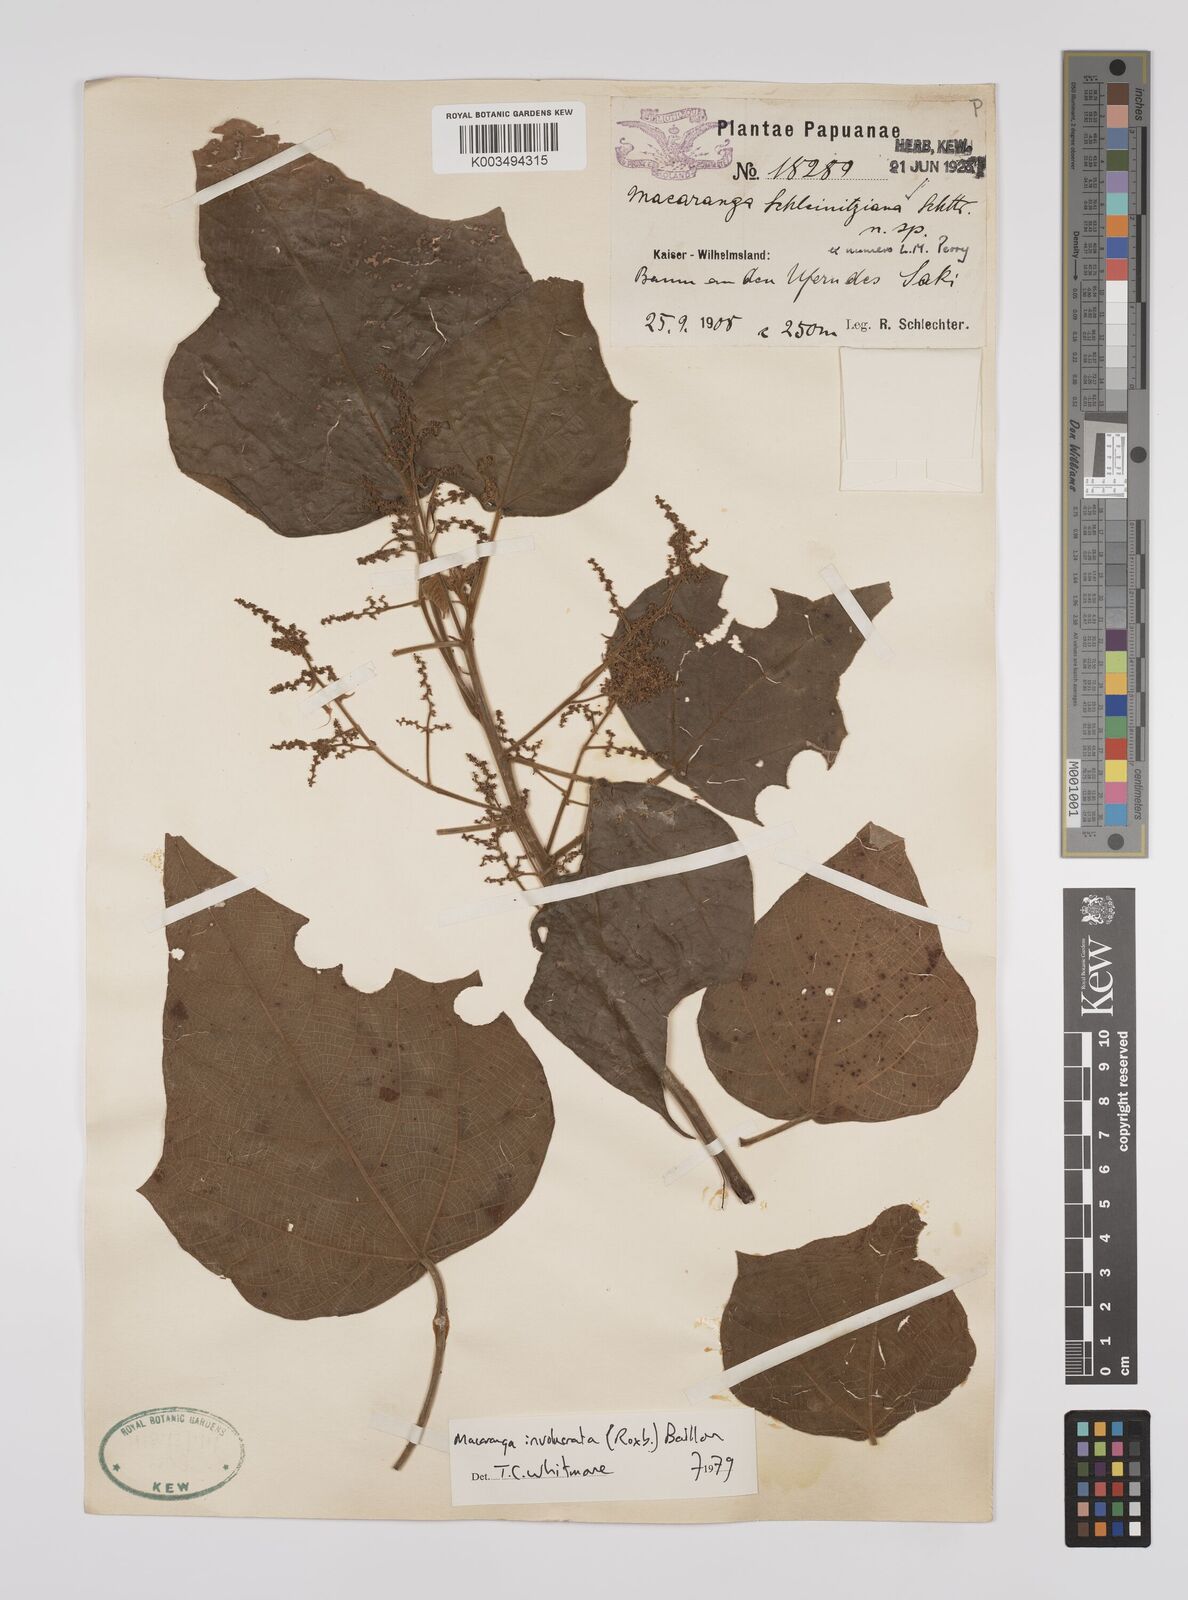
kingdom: Plantae
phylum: Tracheophyta
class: Magnoliopsida
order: Malpighiales
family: Euphorbiaceae
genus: Macaranga
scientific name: Macaranga involucrata
